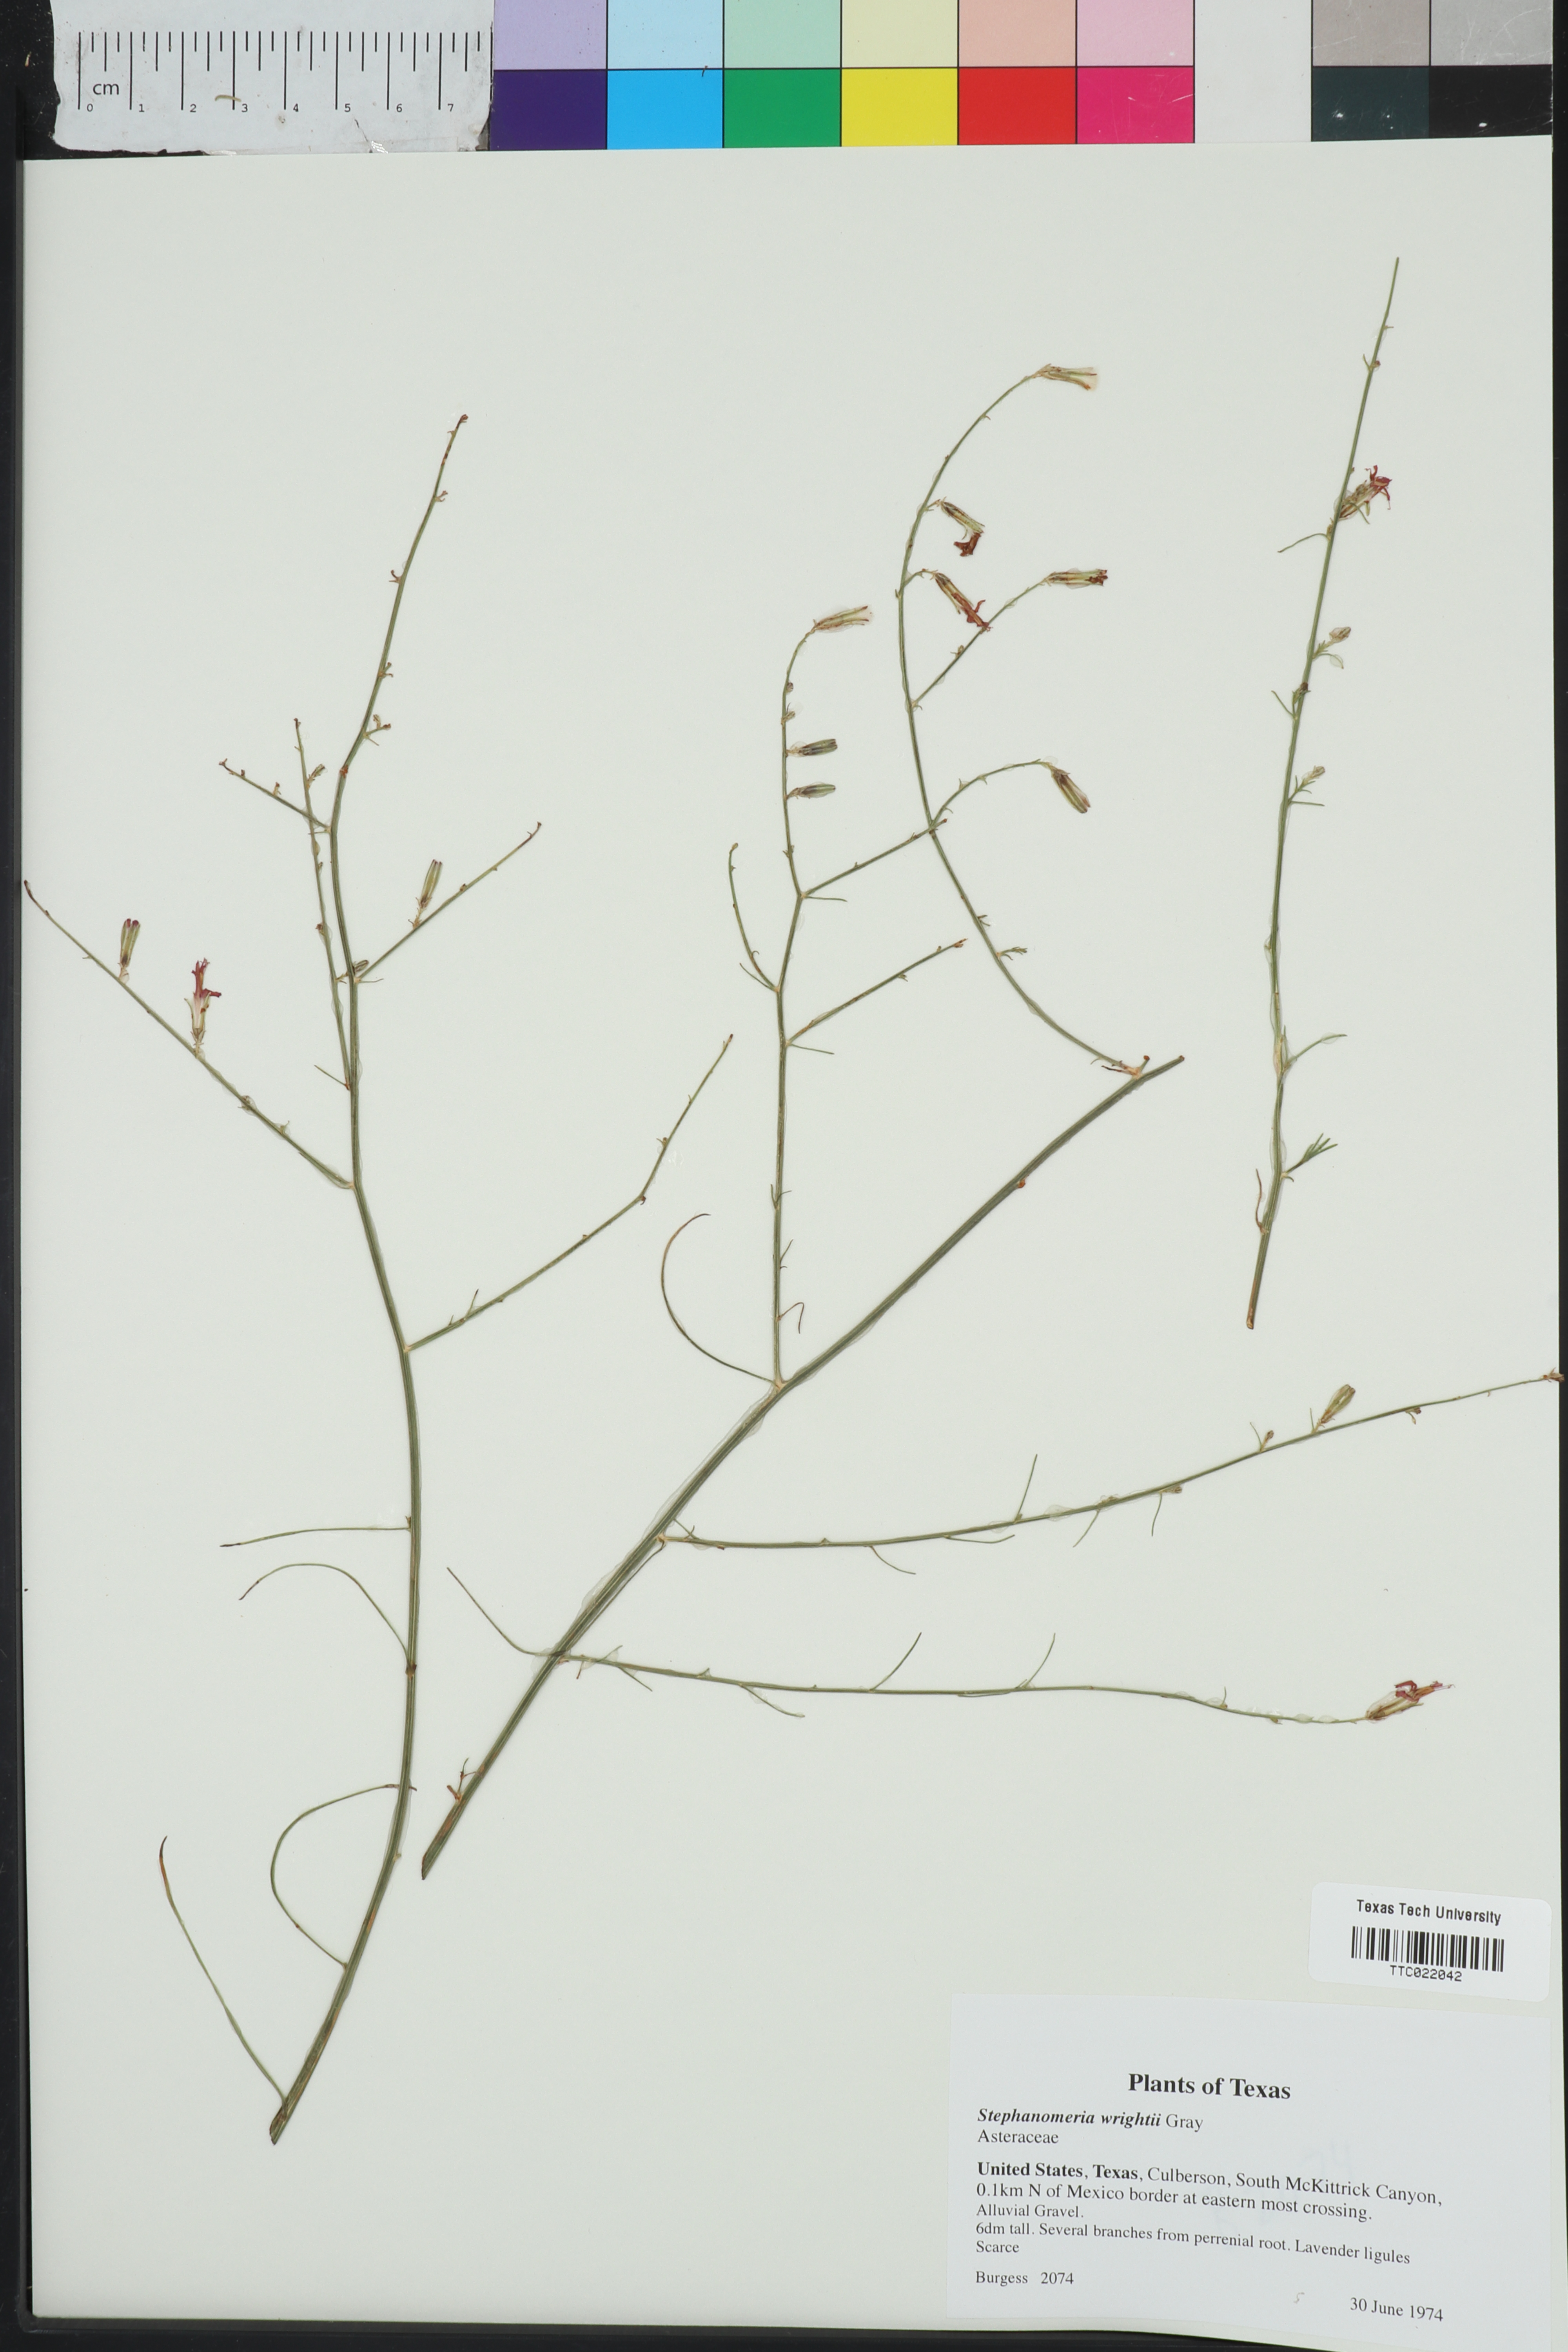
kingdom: Plantae
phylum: Tracheophyta
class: Magnoliopsida
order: Asterales
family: Asteraceae
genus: Stephanomeria
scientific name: Stephanomeria tenuifolia
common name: Slender wirelettuce
